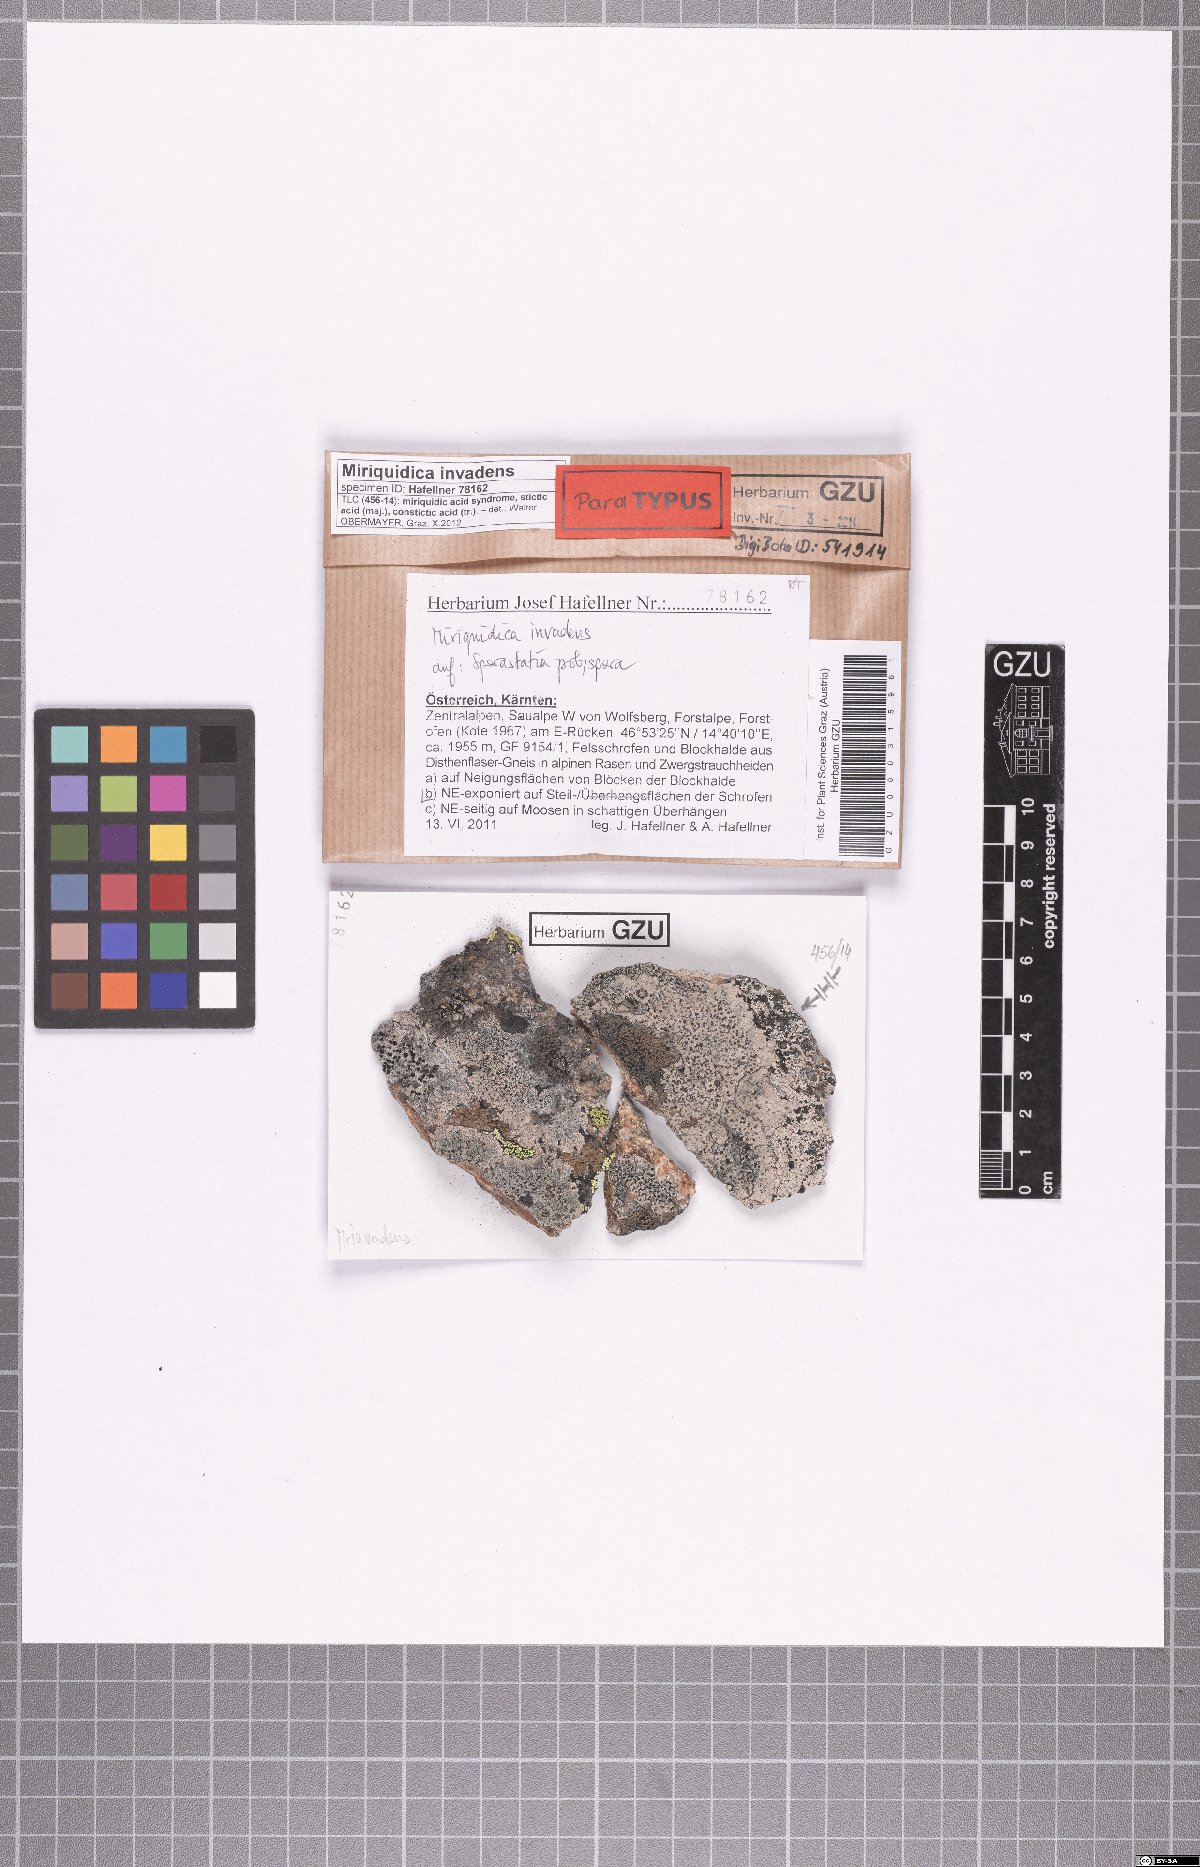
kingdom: Fungi
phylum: Ascomycota
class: Lecanoromycetes
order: Lecanorales
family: Lecanoraceae
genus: Miriquidica
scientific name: Miriquidica invadens
